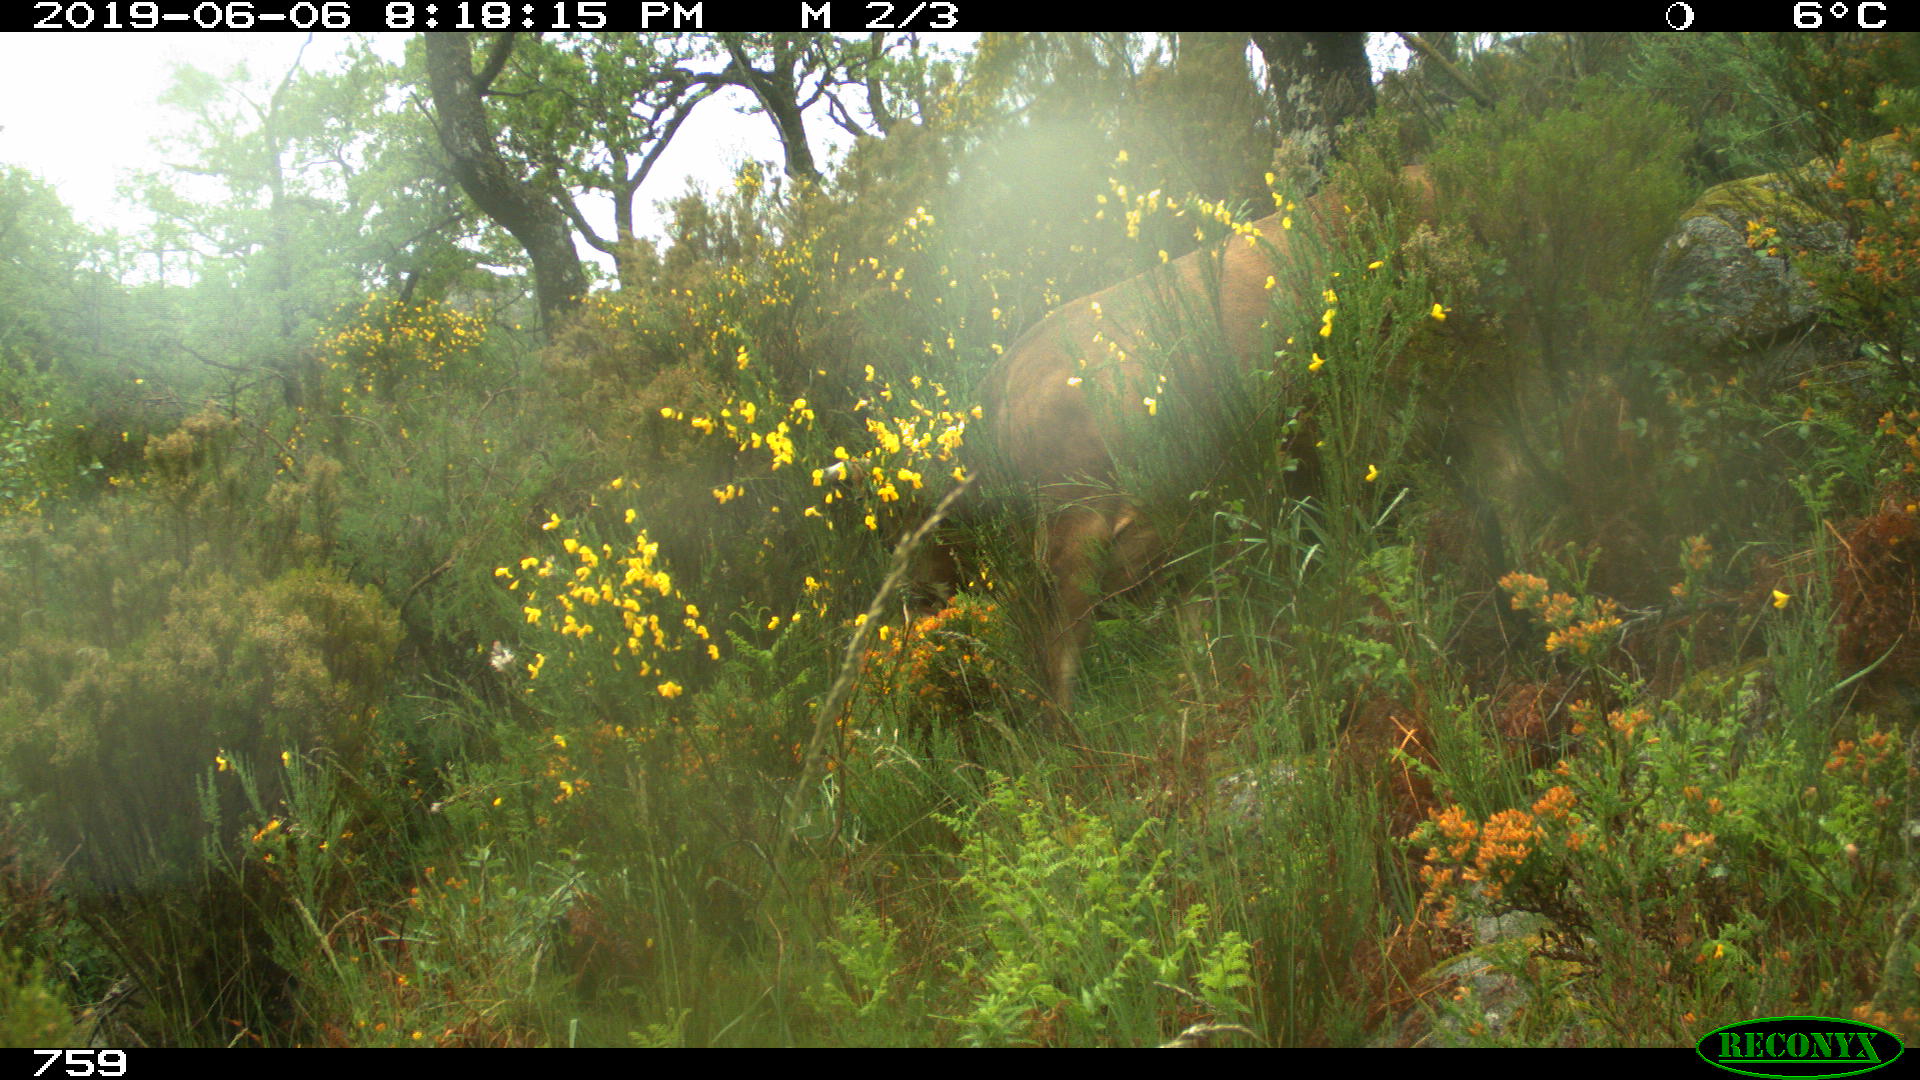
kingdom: Animalia
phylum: Chordata
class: Mammalia
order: Artiodactyla
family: Bovidae
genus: Bos
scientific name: Bos taurus
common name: Domesticated cattle
